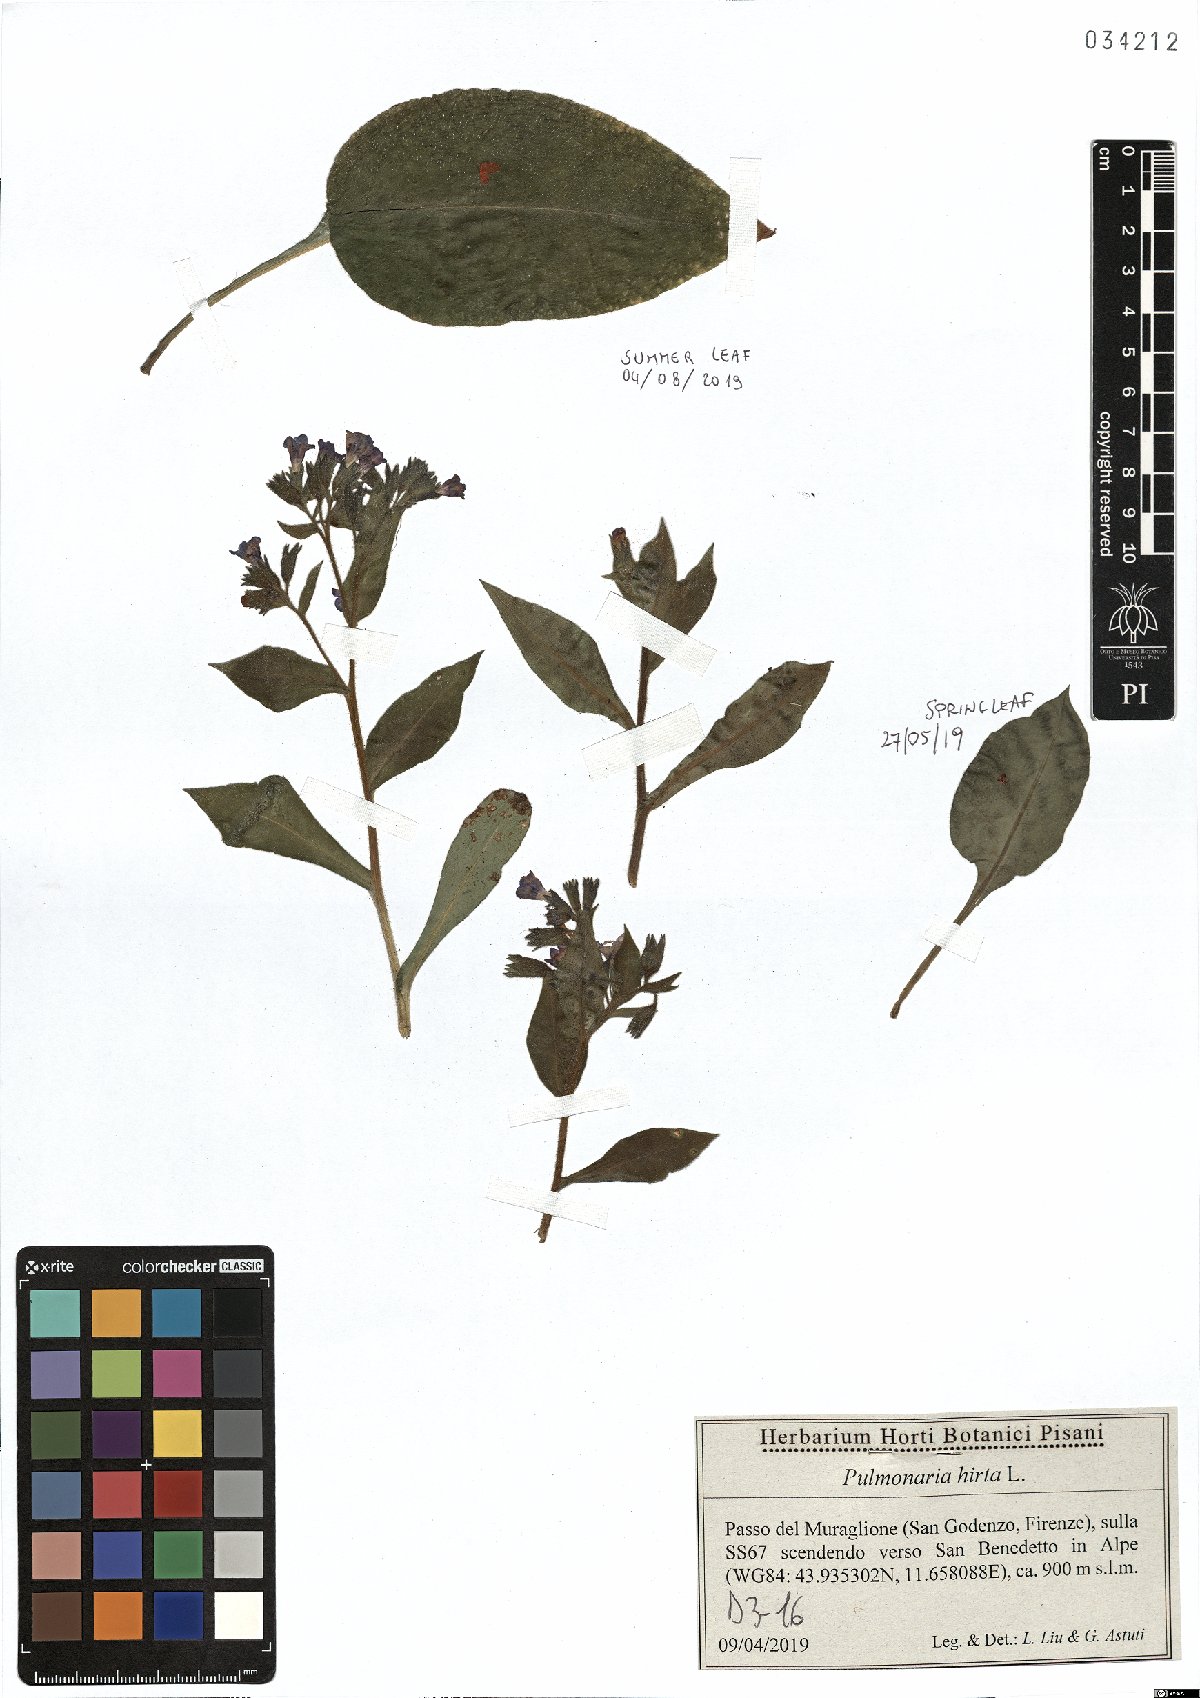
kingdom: Plantae
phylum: Tracheophyta
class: Magnoliopsida
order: Boraginales
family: Boraginaceae
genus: Pulmonaria
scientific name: Pulmonaria hirta
